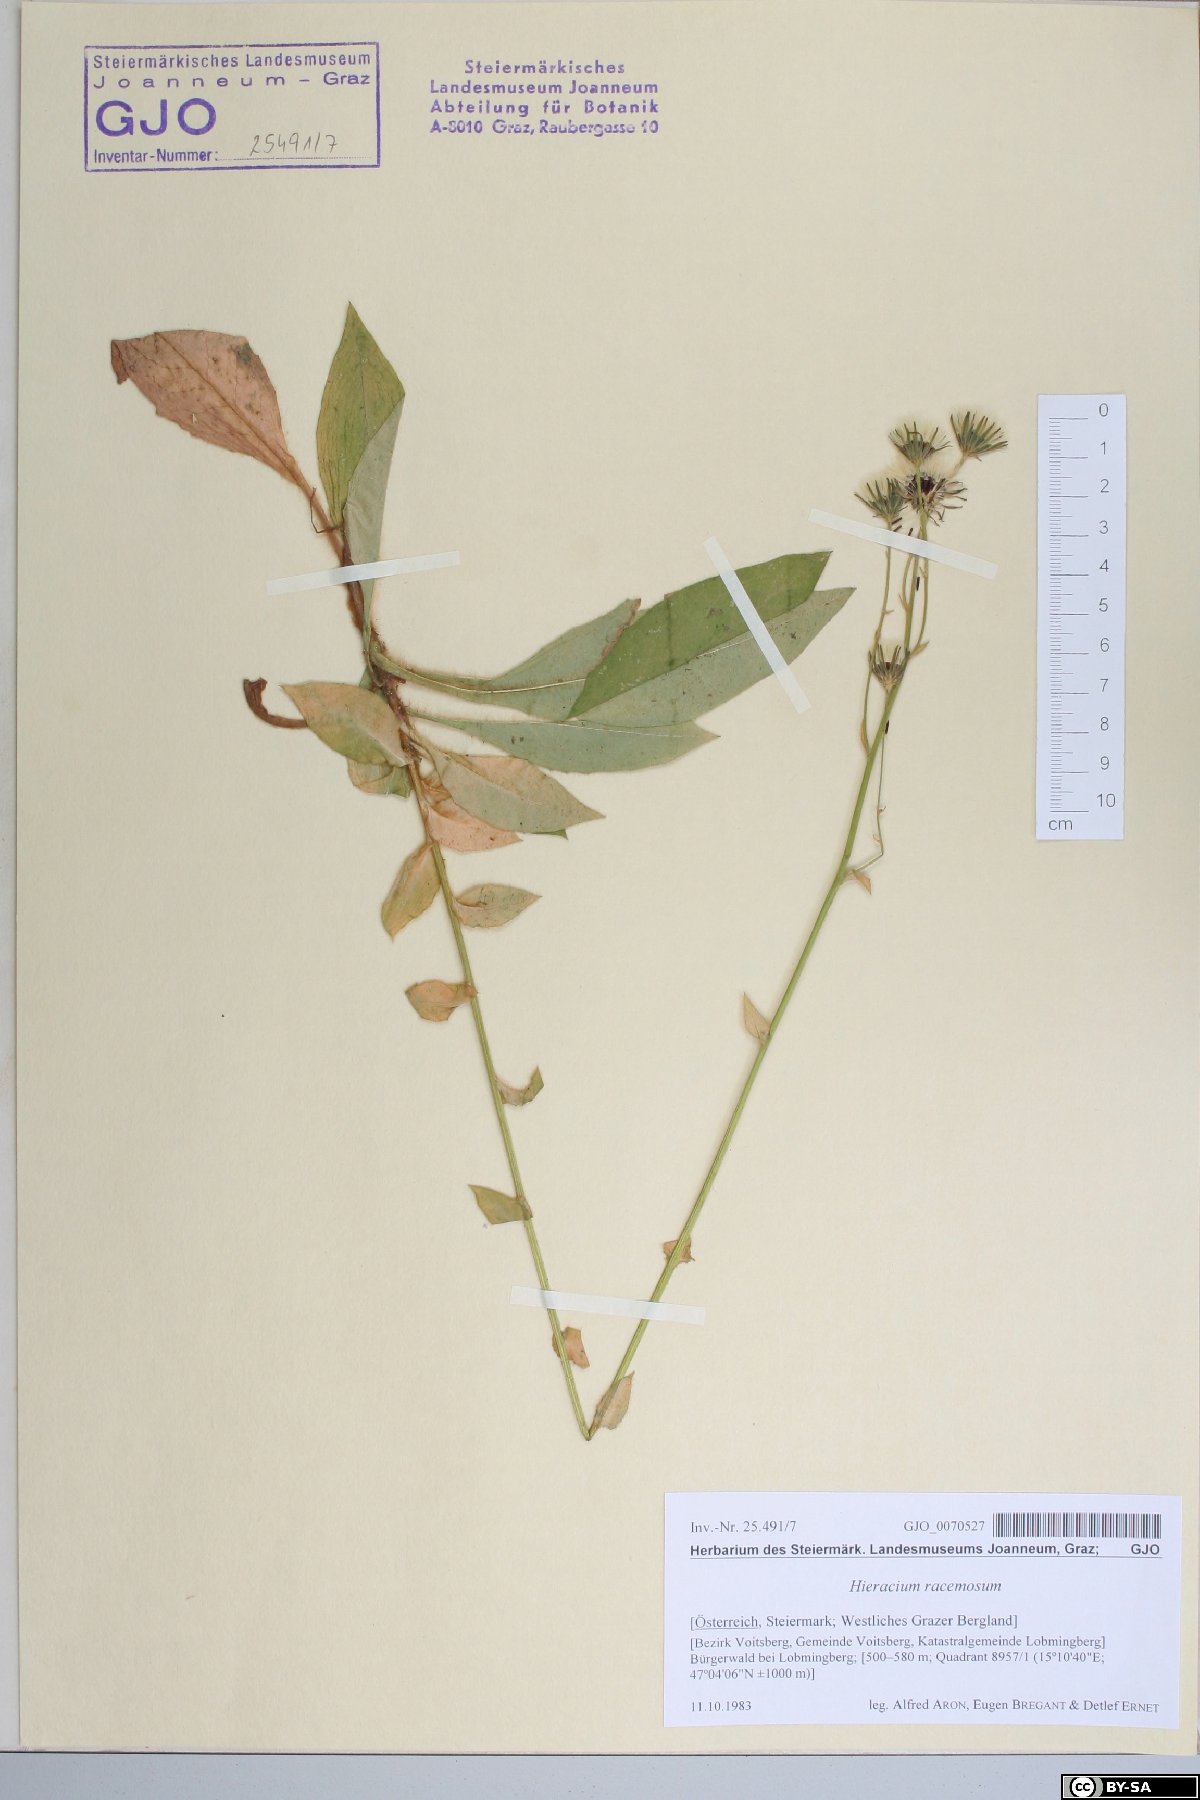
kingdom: Plantae
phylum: Tracheophyta
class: Magnoliopsida
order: Asterales
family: Asteraceae
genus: Hieracium
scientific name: Hieracium racemosum
